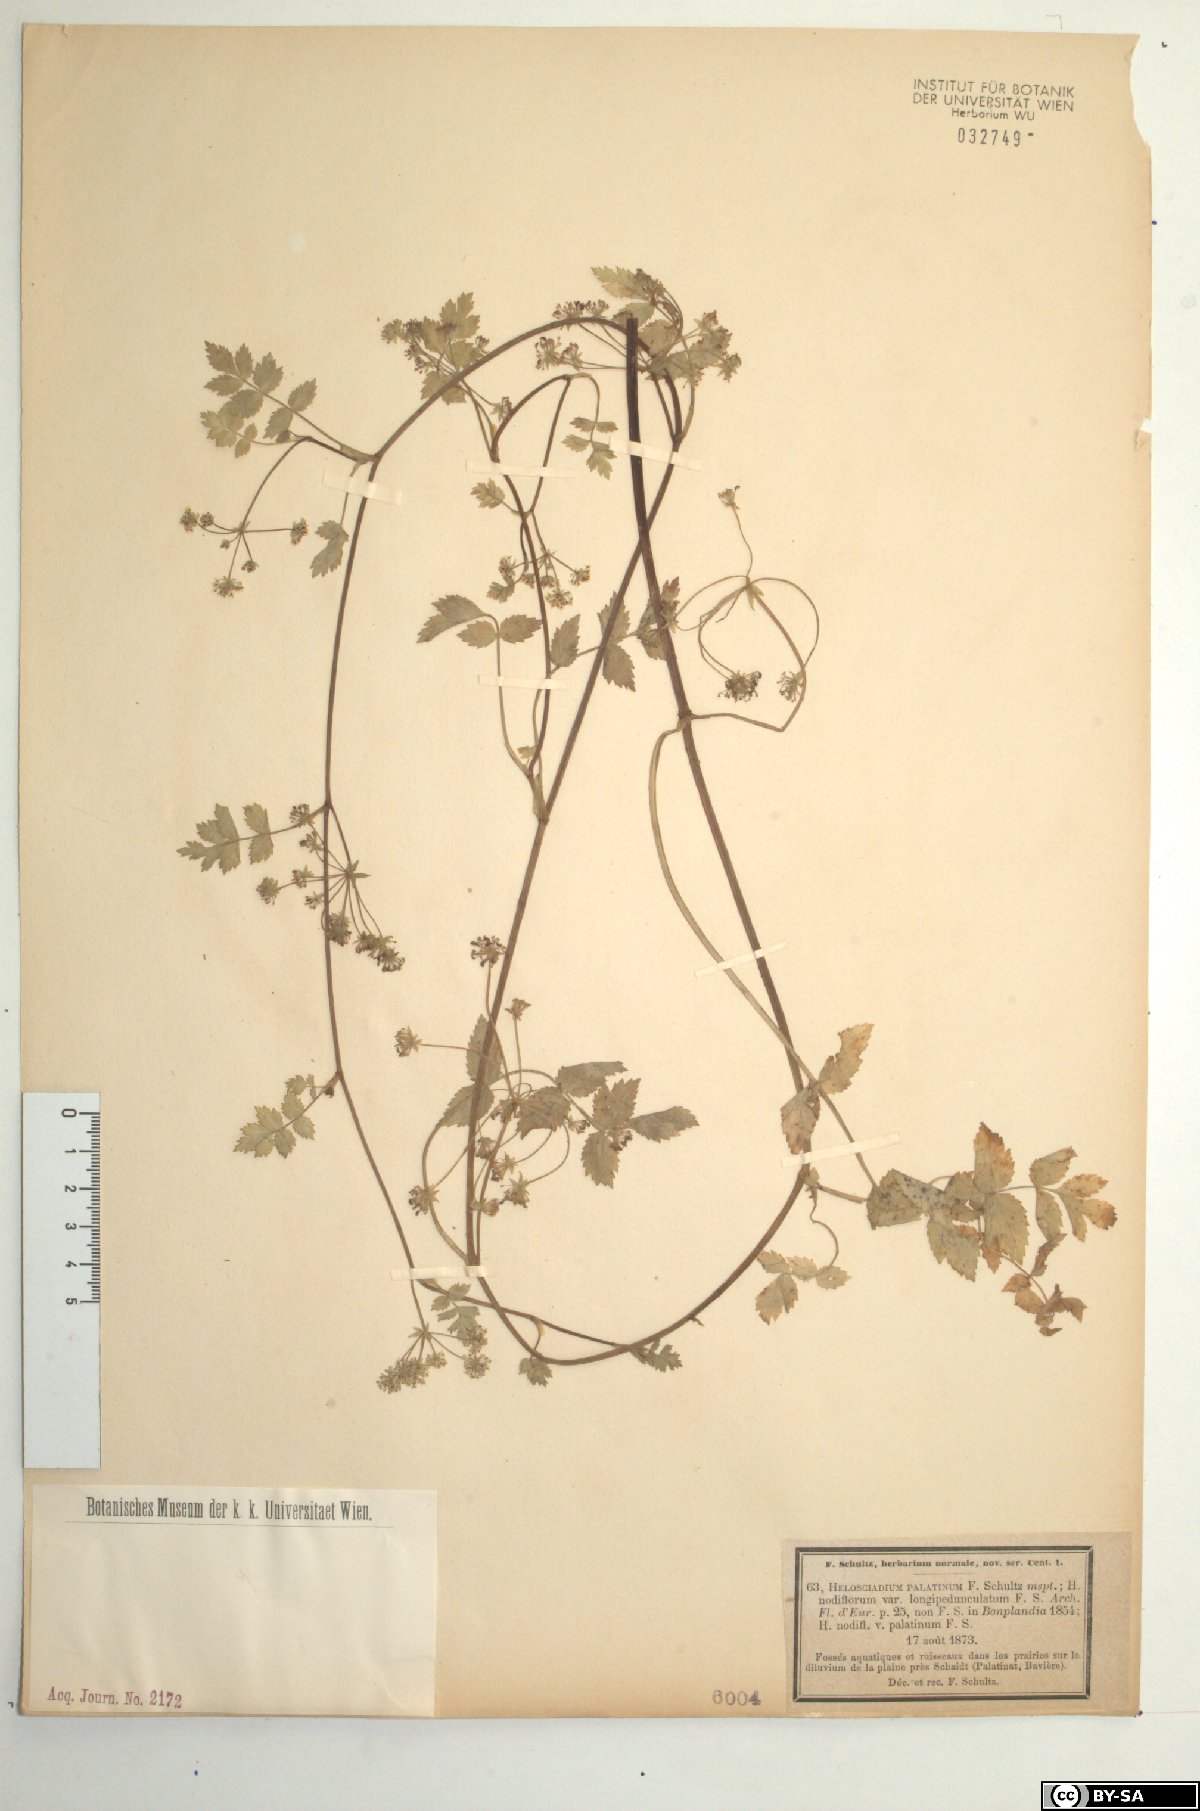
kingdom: Plantae
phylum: Tracheophyta
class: Magnoliopsida
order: Apiales
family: Apiaceae
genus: Helosciadium
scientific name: Helosciadium repens
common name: Creeping marshwort
